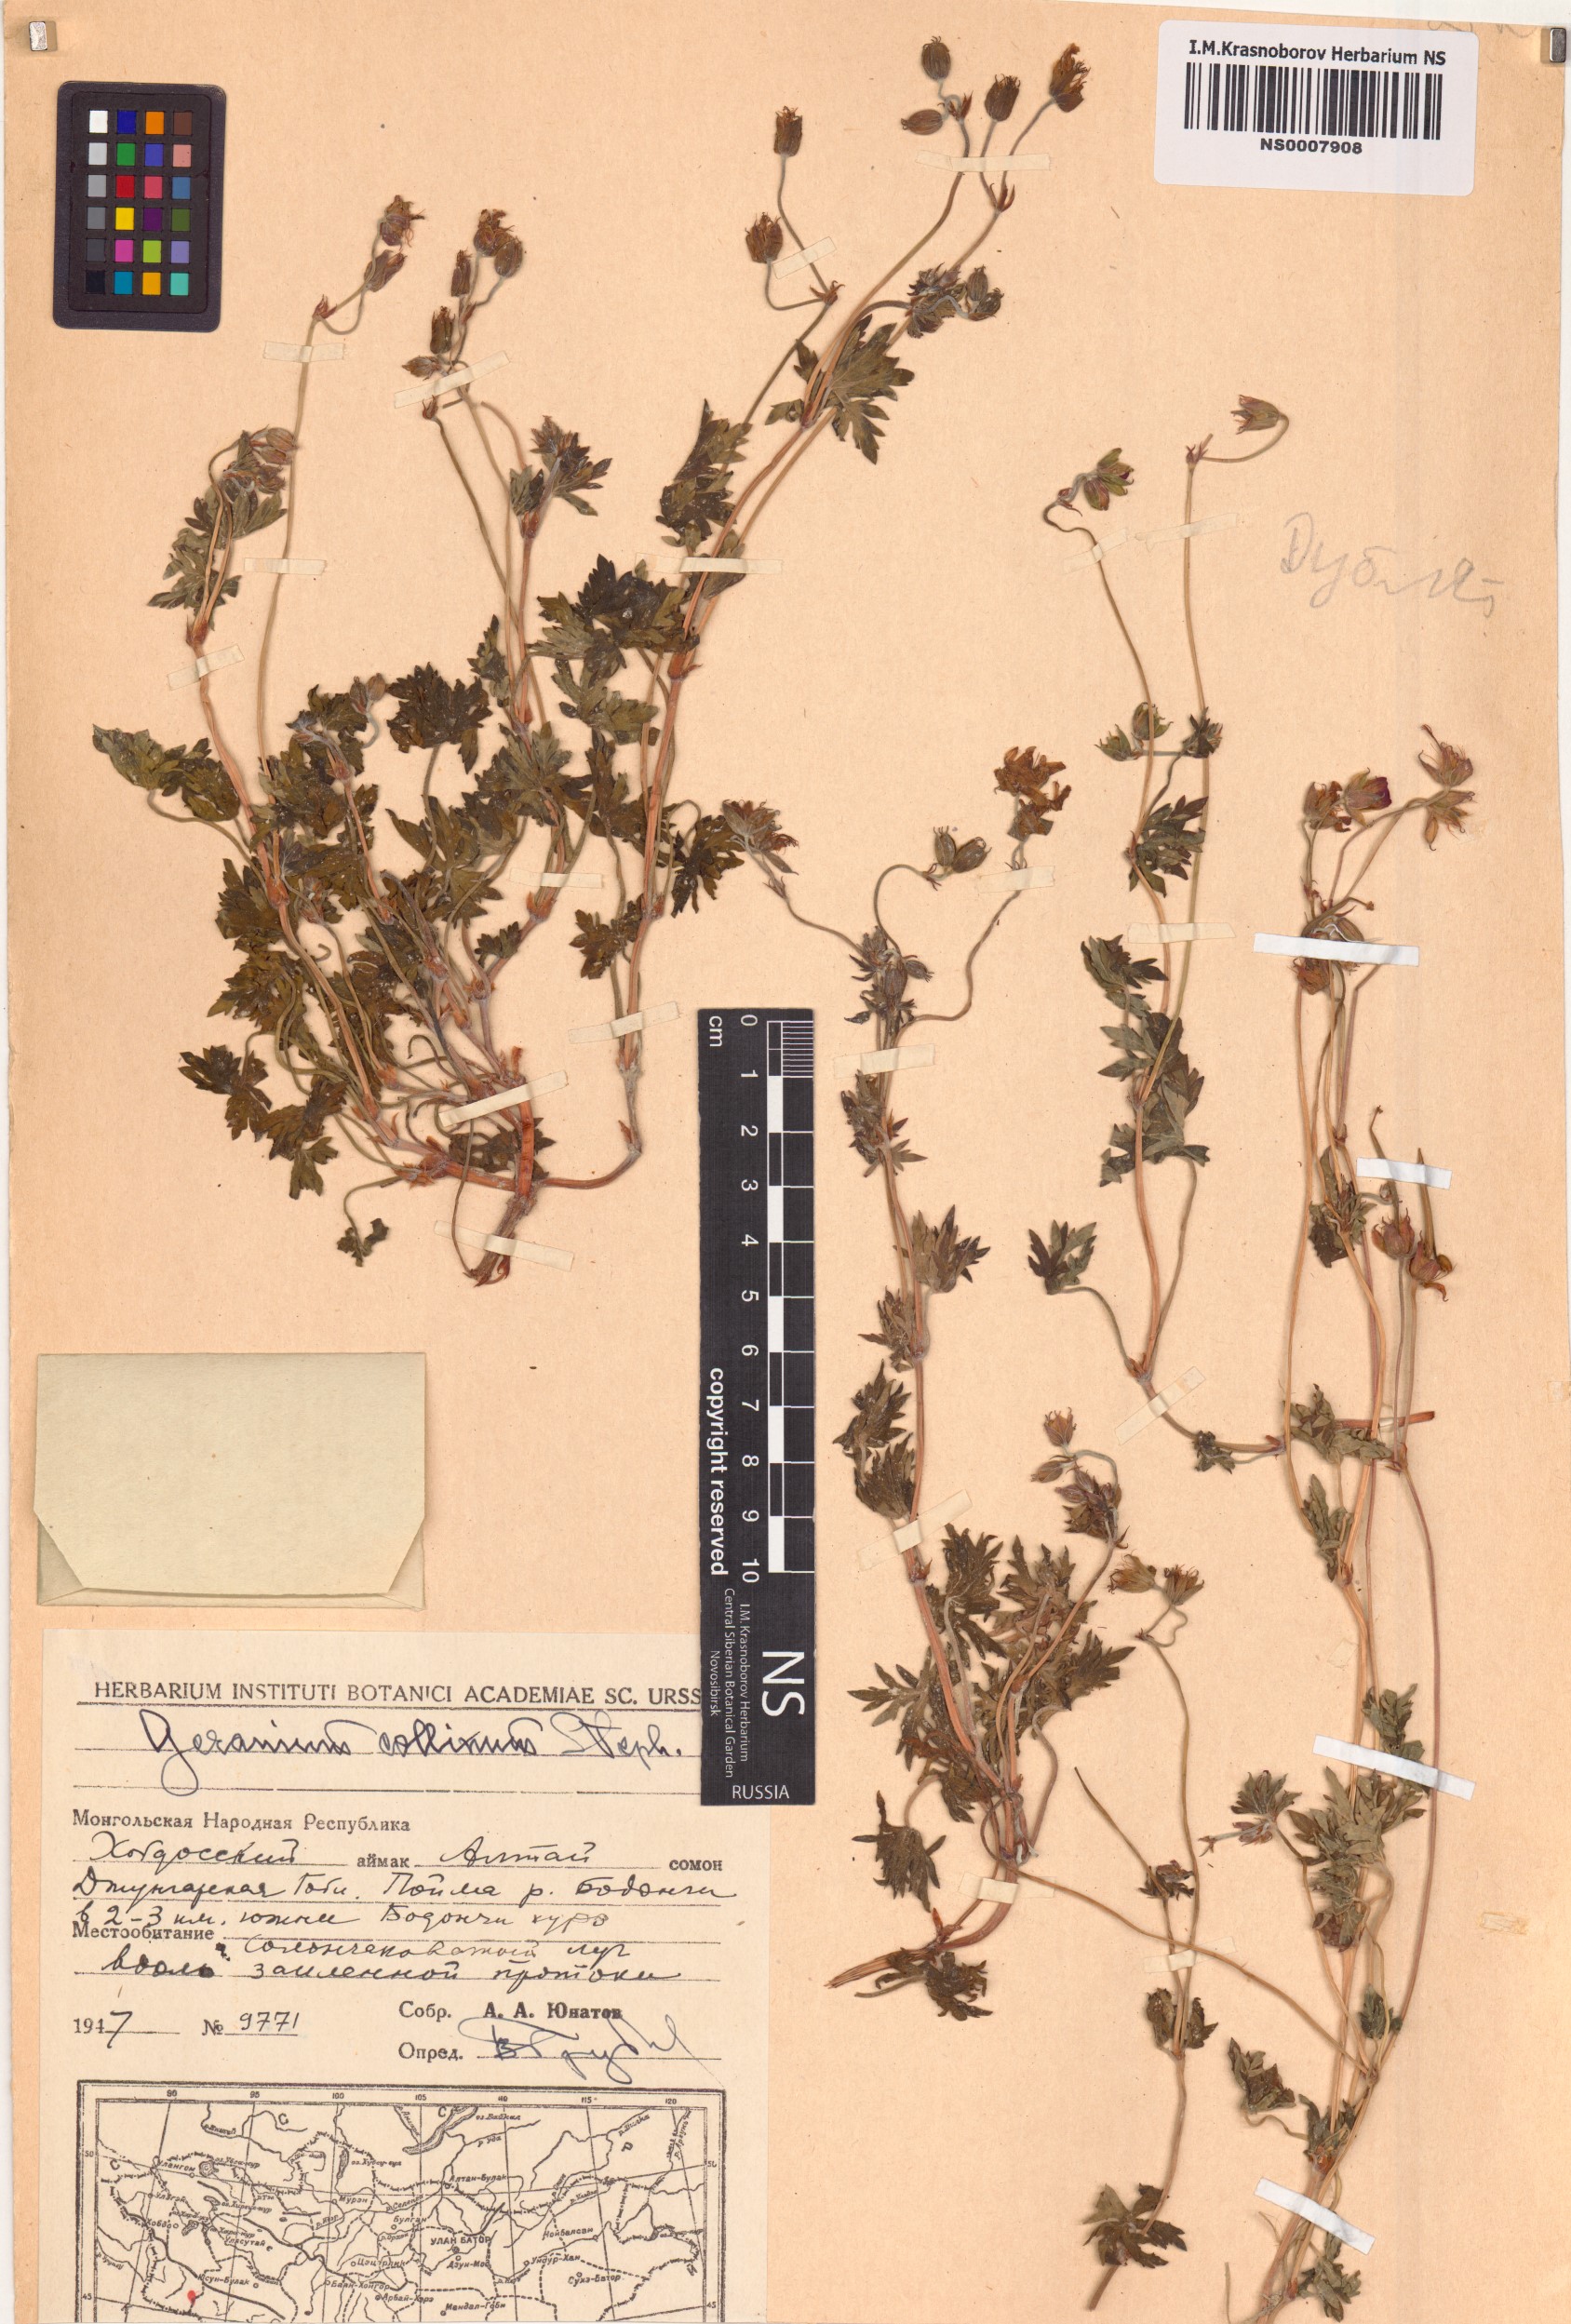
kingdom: Plantae
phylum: Tracheophyta
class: Magnoliopsida
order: Geraniales
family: Geraniaceae
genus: Geranium
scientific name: Geranium collinum
